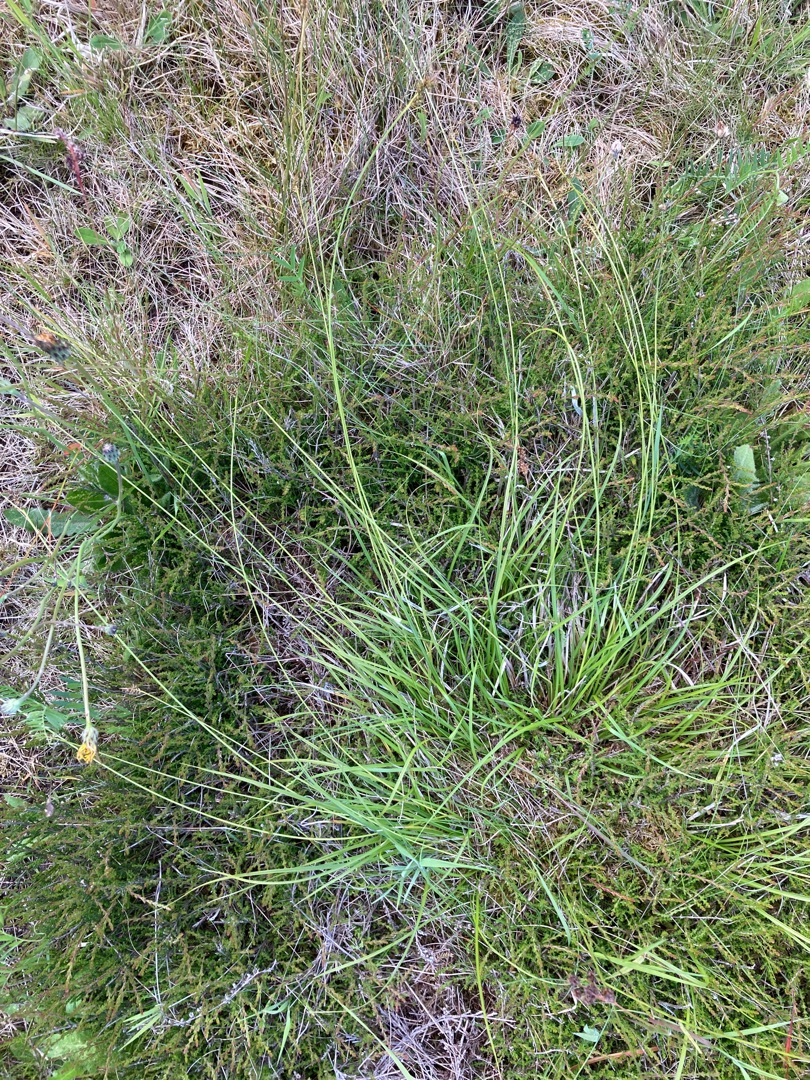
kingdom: Plantae
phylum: Tracheophyta
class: Liliopsida
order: Poales
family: Cyperaceae
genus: Carex
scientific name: Carex pilulifera
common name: Pille-star
